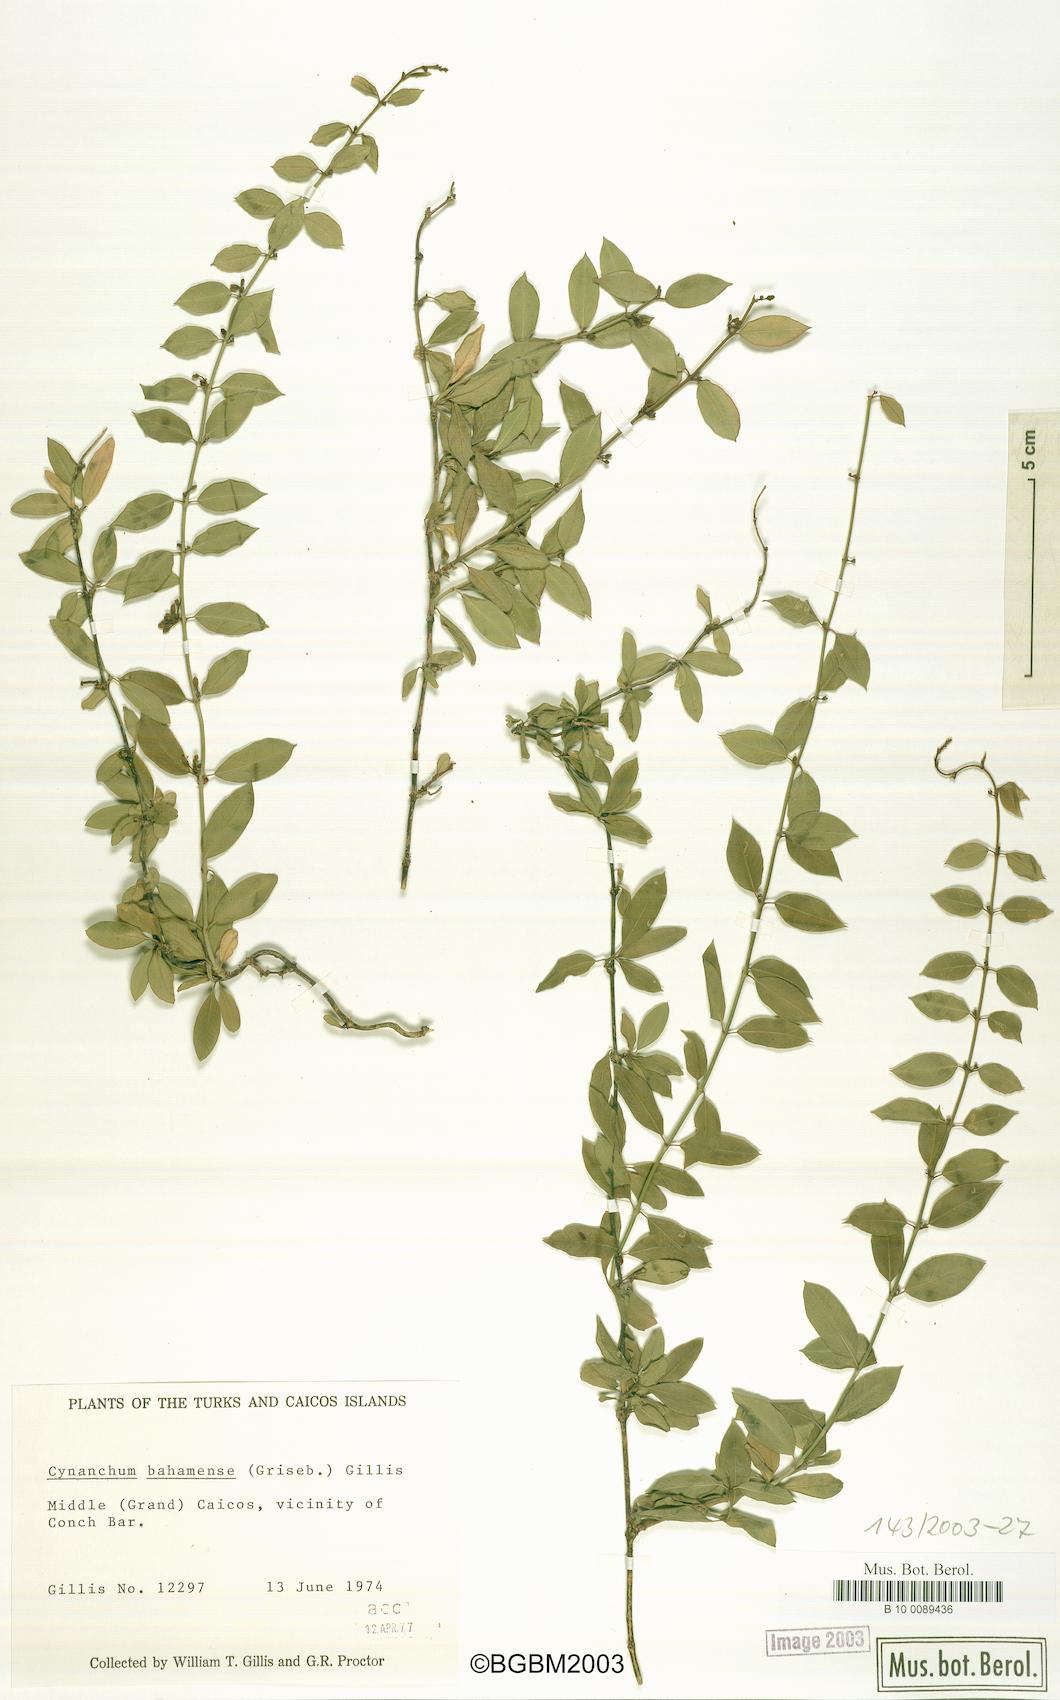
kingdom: Plantae
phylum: Tracheophyta
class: Magnoliopsida
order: Gentianales
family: Apocynaceae
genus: Metastelma
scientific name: Metastelma bahamense
